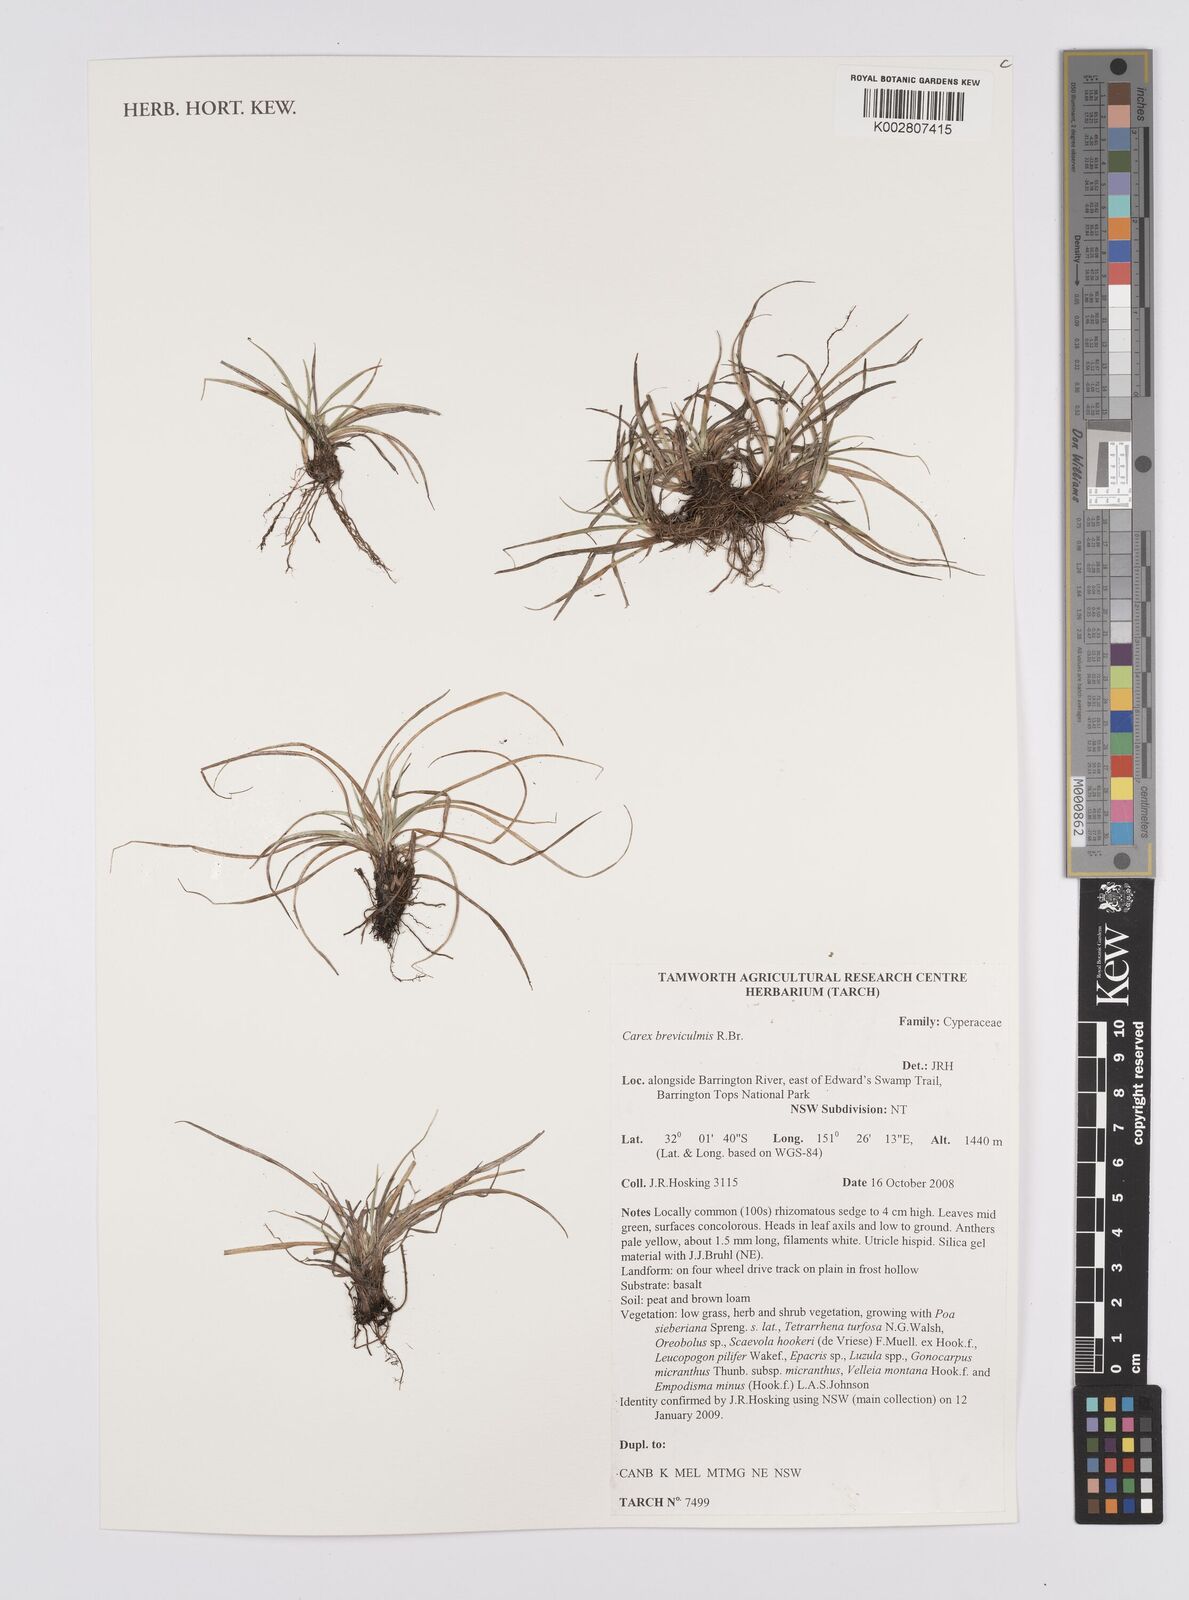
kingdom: Plantae
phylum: Tracheophyta
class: Liliopsida
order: Poales
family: Cyperaceae
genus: Carex
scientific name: Carex breviculmis
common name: Asian shortstem sedge
